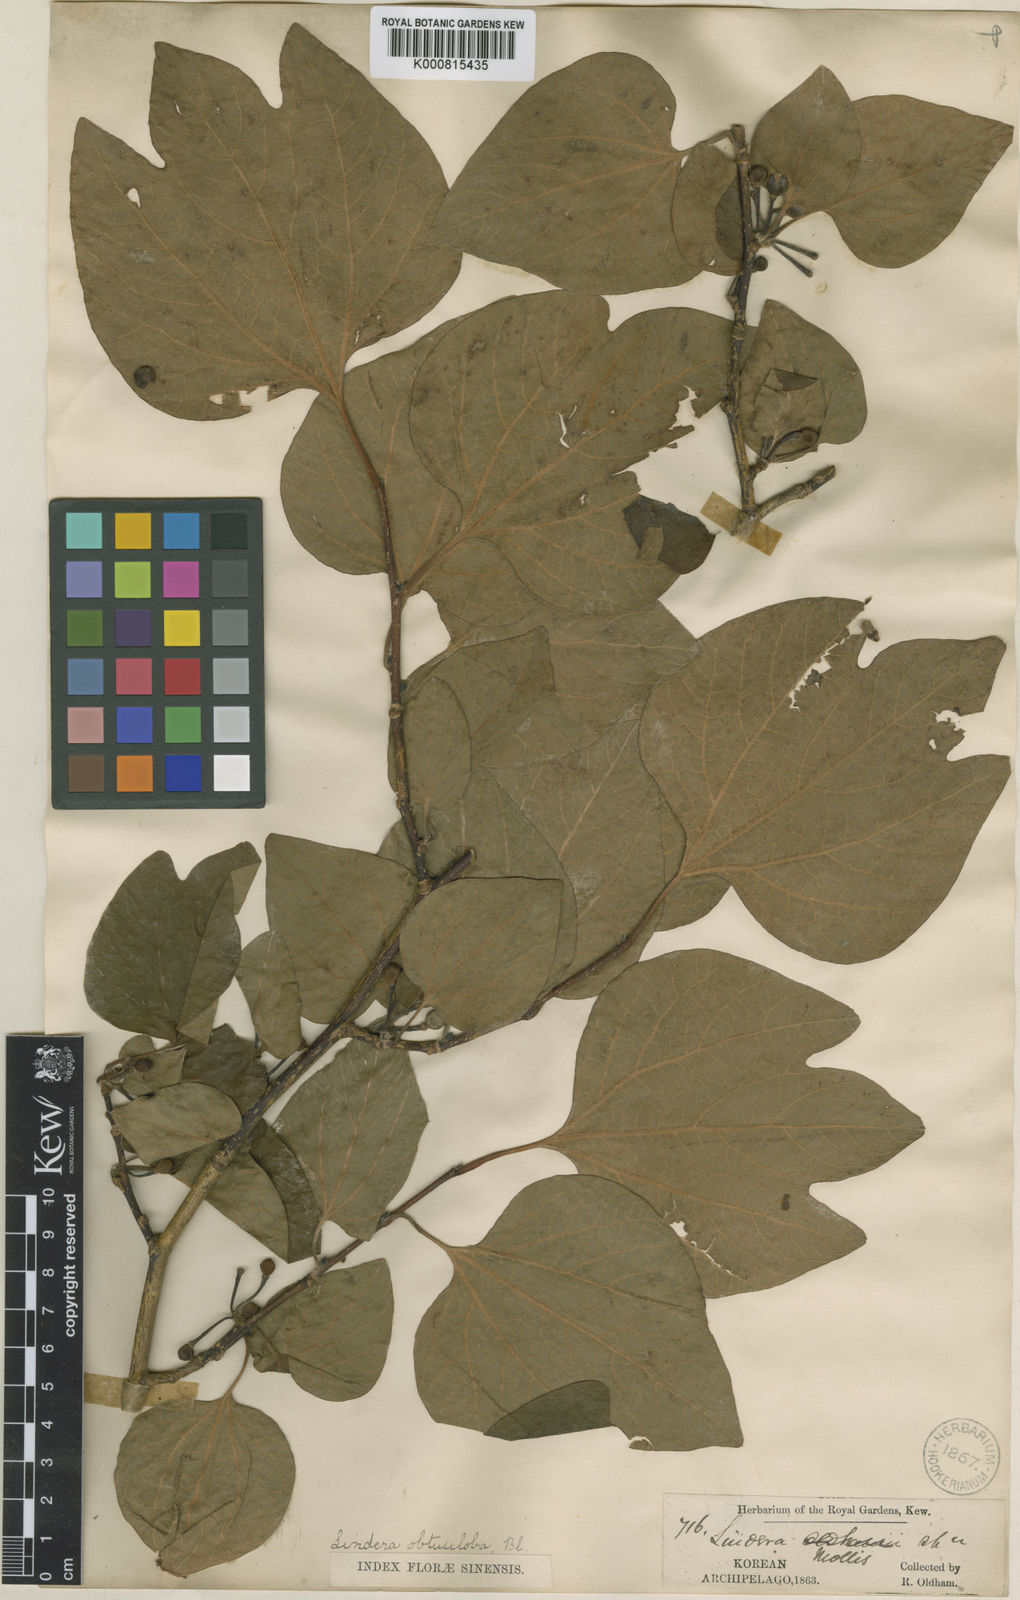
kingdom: Plantae
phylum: Tracheophyta
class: Magnoliopsida
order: Laurales
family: Lauraceae
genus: Lindera
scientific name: Lindera obtusiloba
